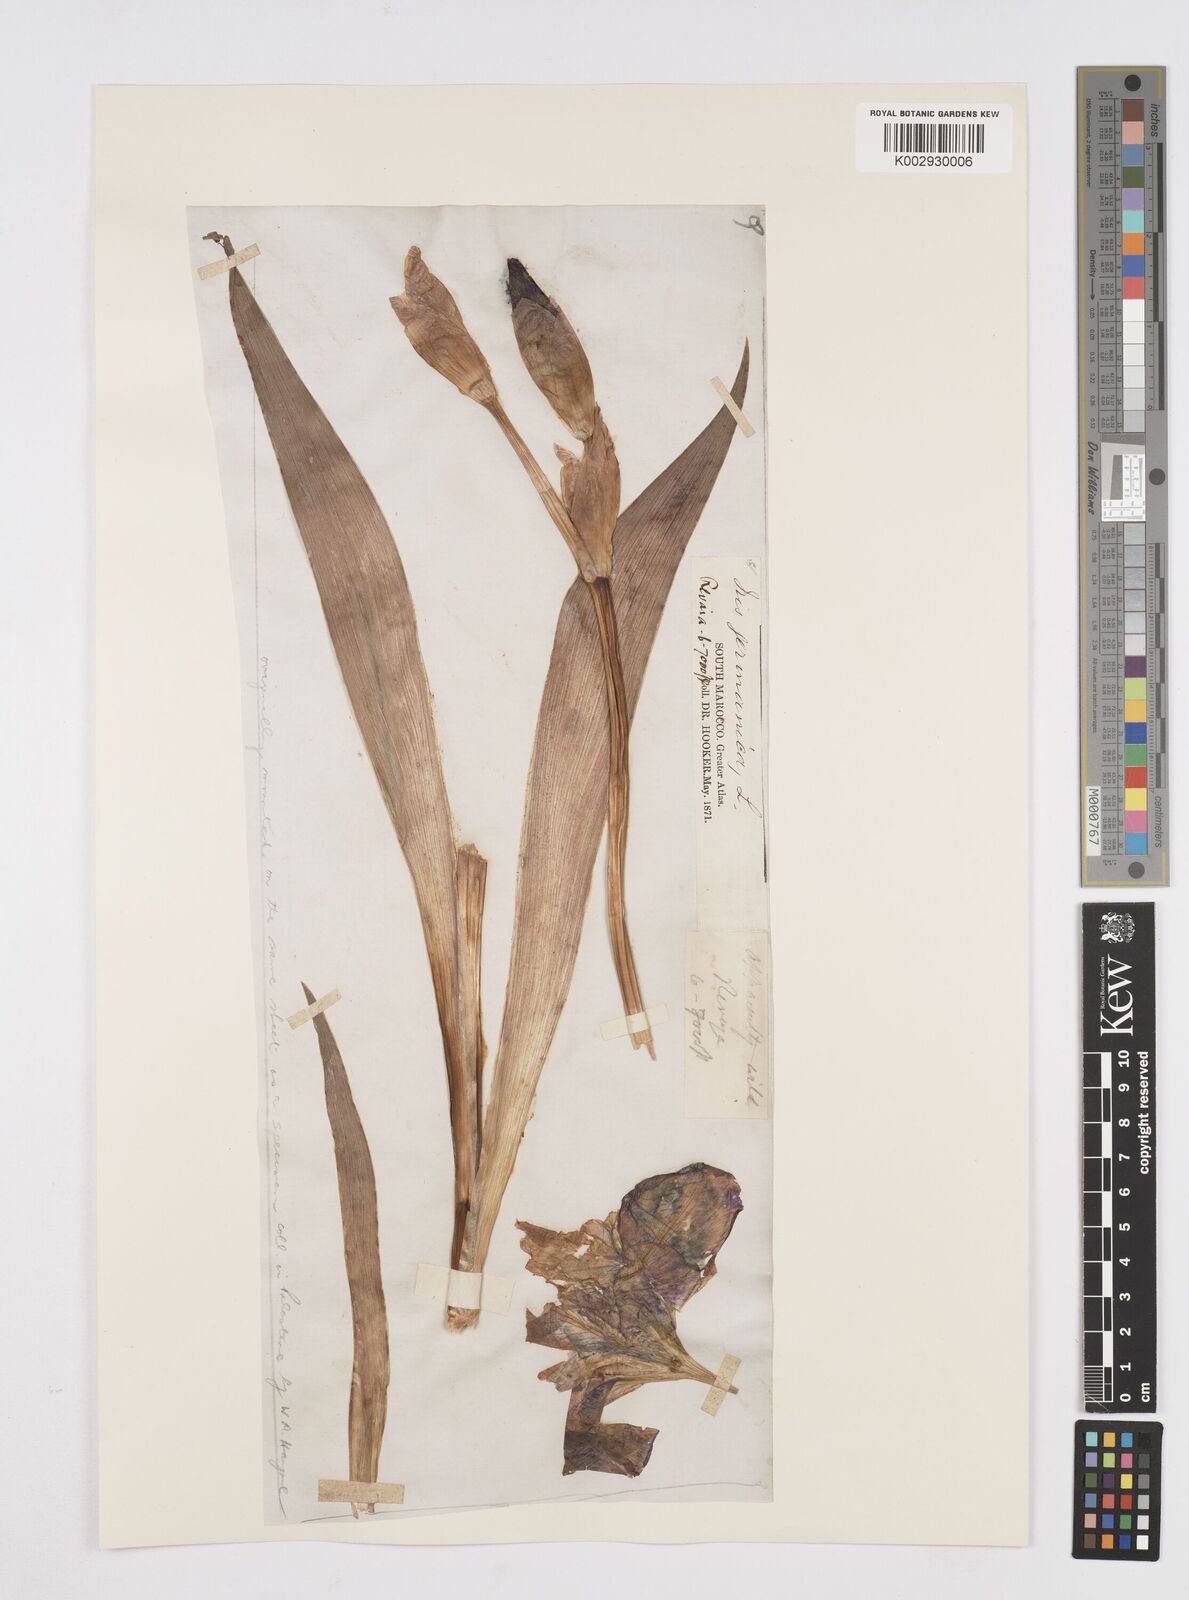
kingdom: Plantae
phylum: Tracheophyta
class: Liliopsida
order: Asparagales
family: Iridaceae
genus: Iris
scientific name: Iris germanica
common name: German iris
